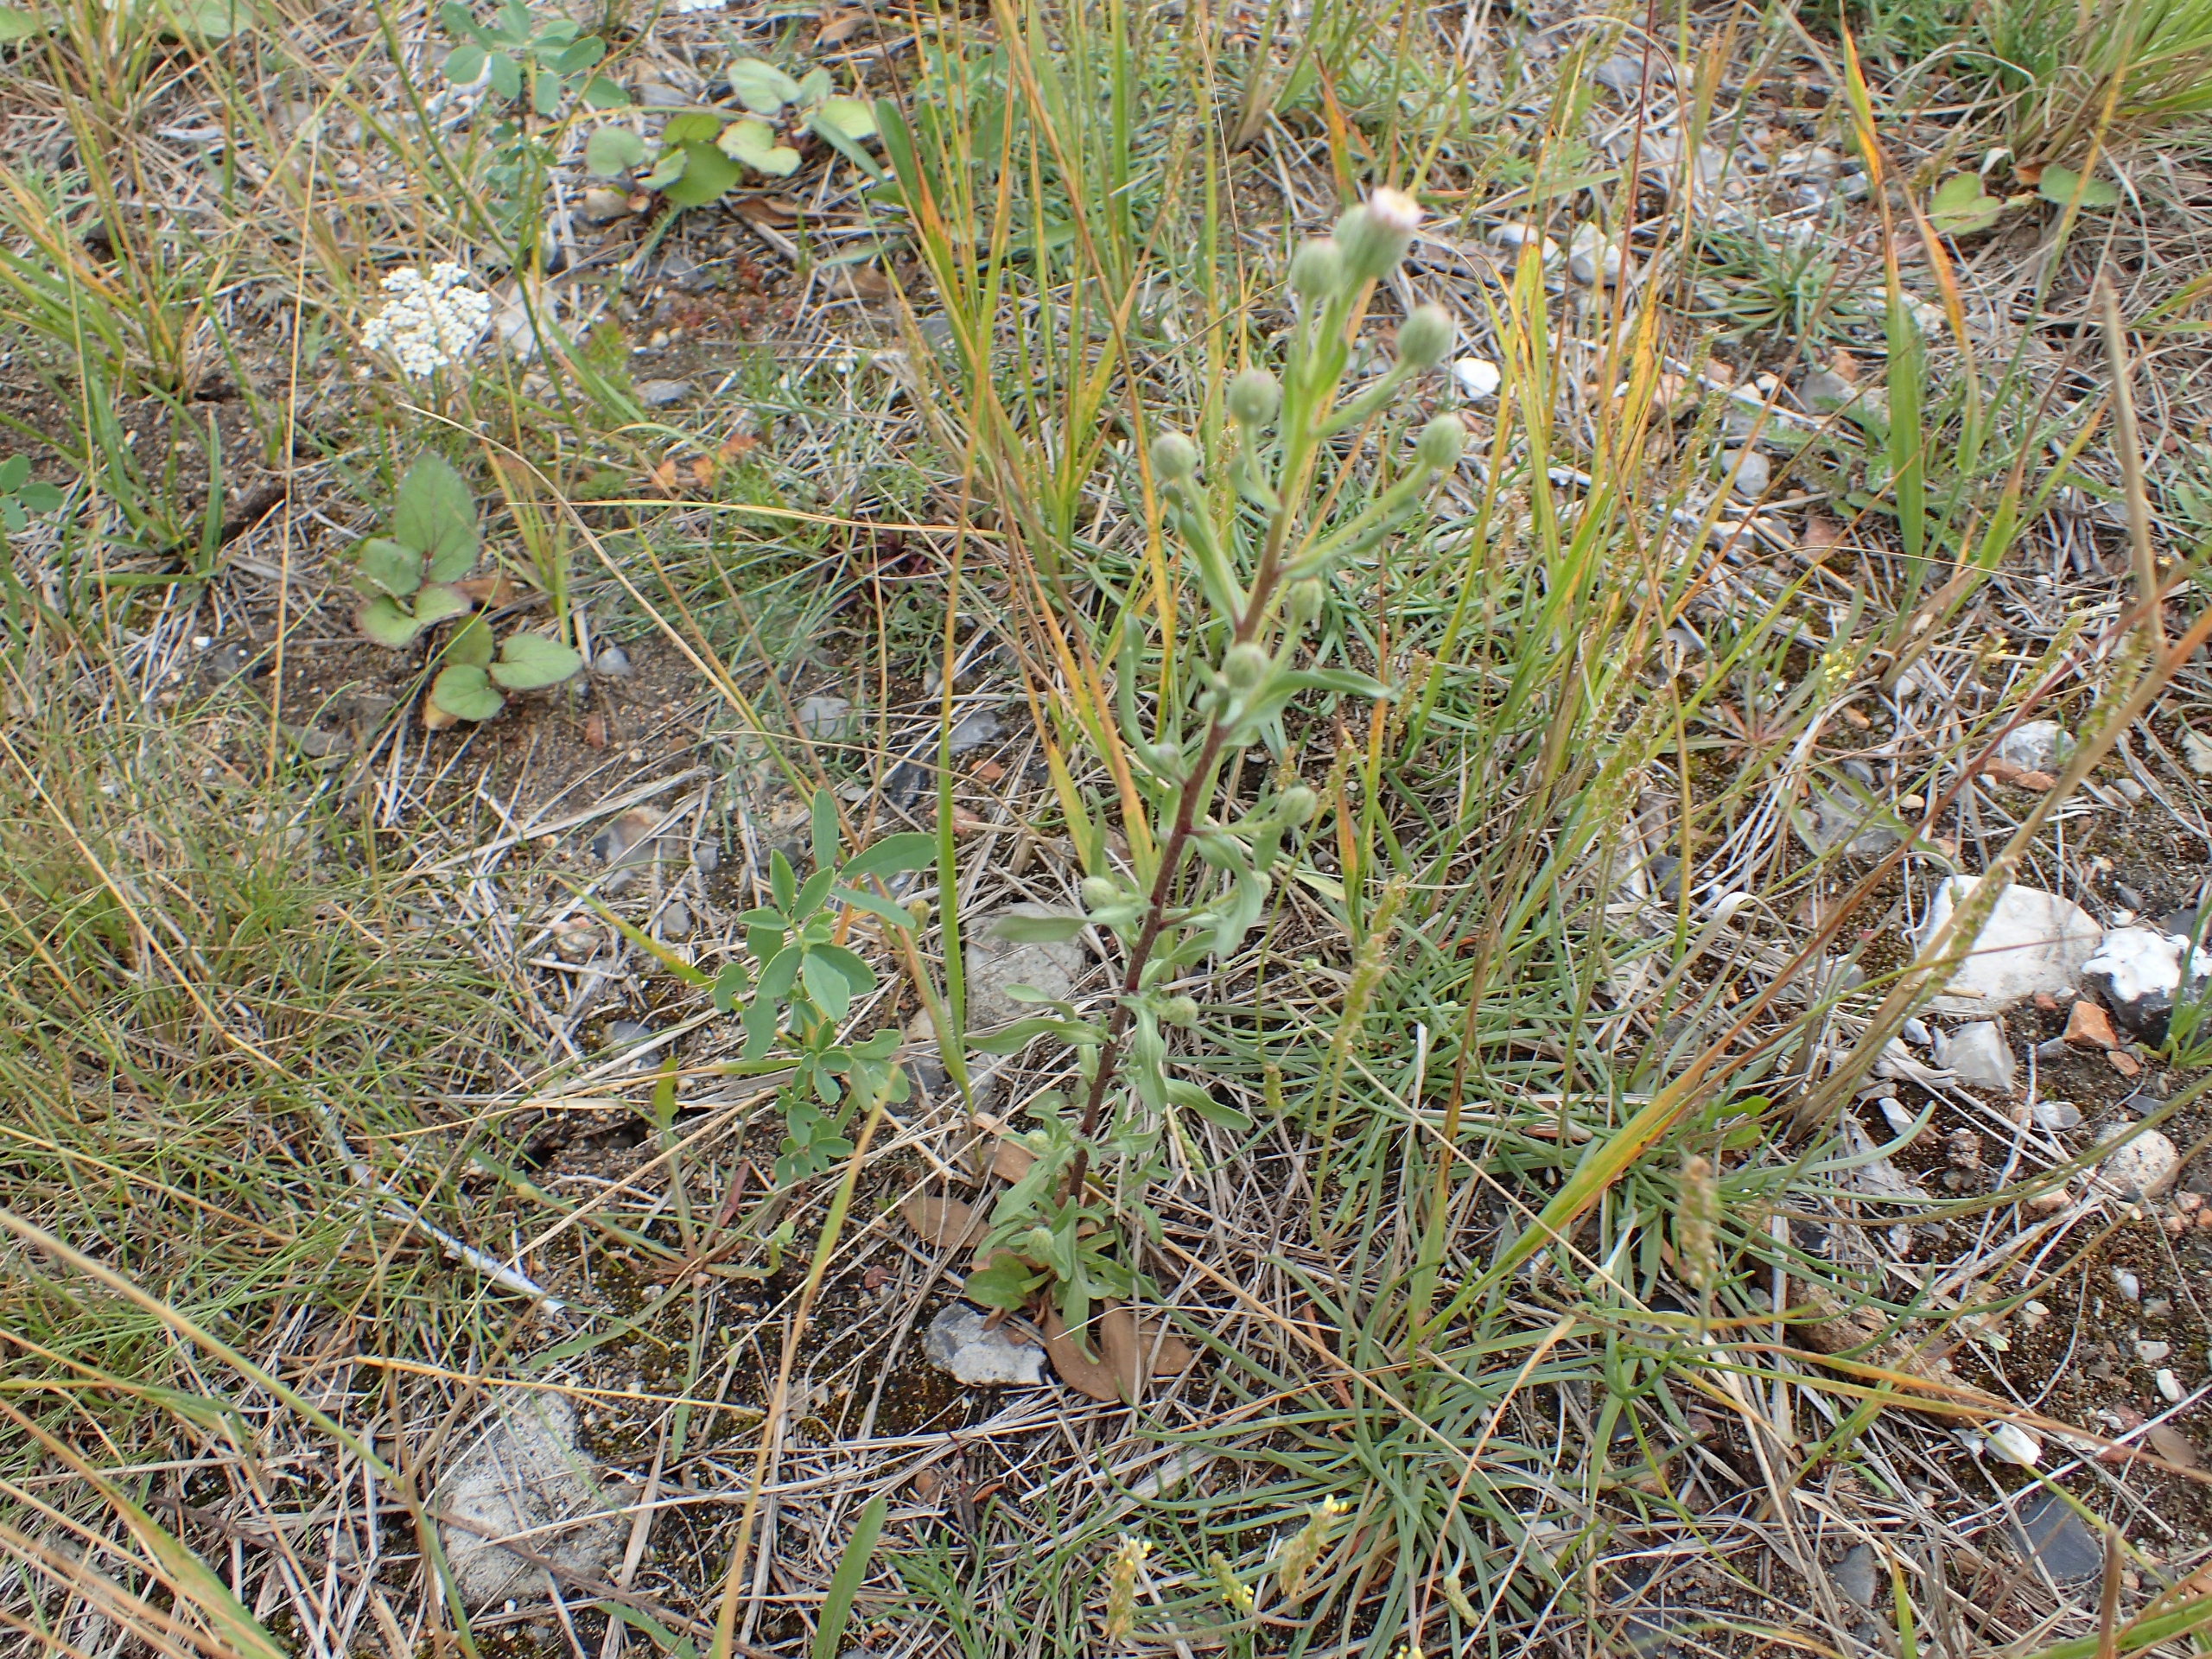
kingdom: Plantae
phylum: Tracheophyta
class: Magnoliopsida
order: Asterales
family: Asteraceae
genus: Erigeron
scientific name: Erigeron muralis
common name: Vreden bakkestjerne
